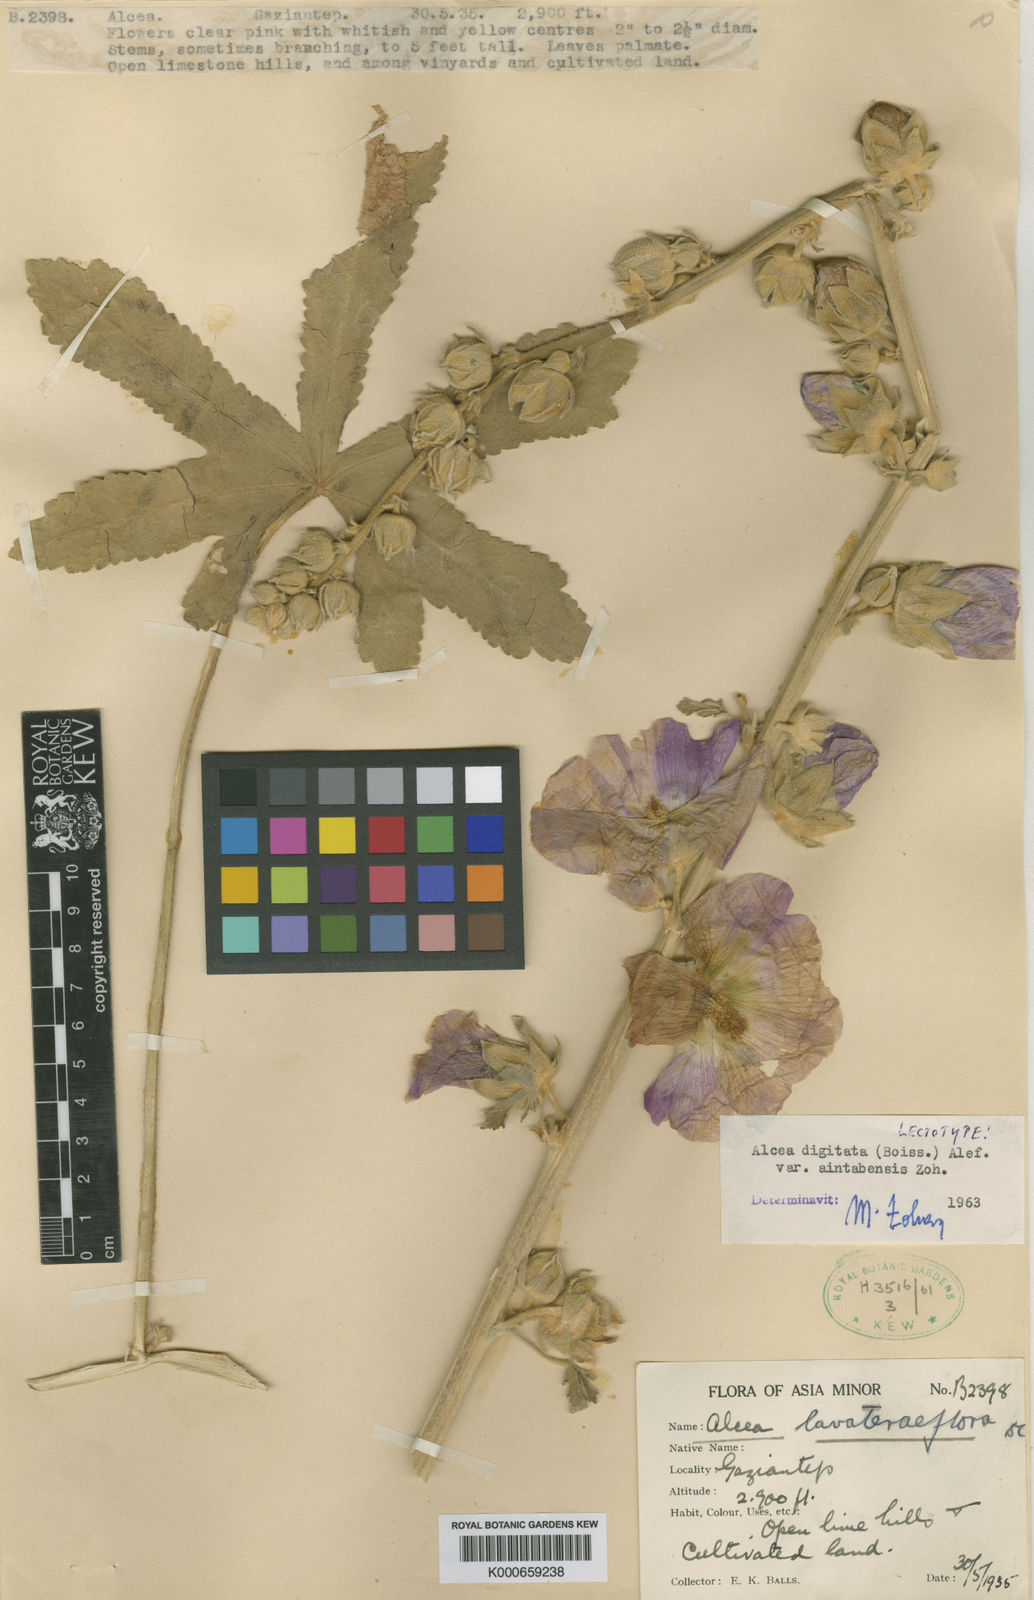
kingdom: Plantae
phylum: Tracheophyta
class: Magnoliopsida
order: Malvales
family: Malvaceae
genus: Alcea
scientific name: Alcea digitata
